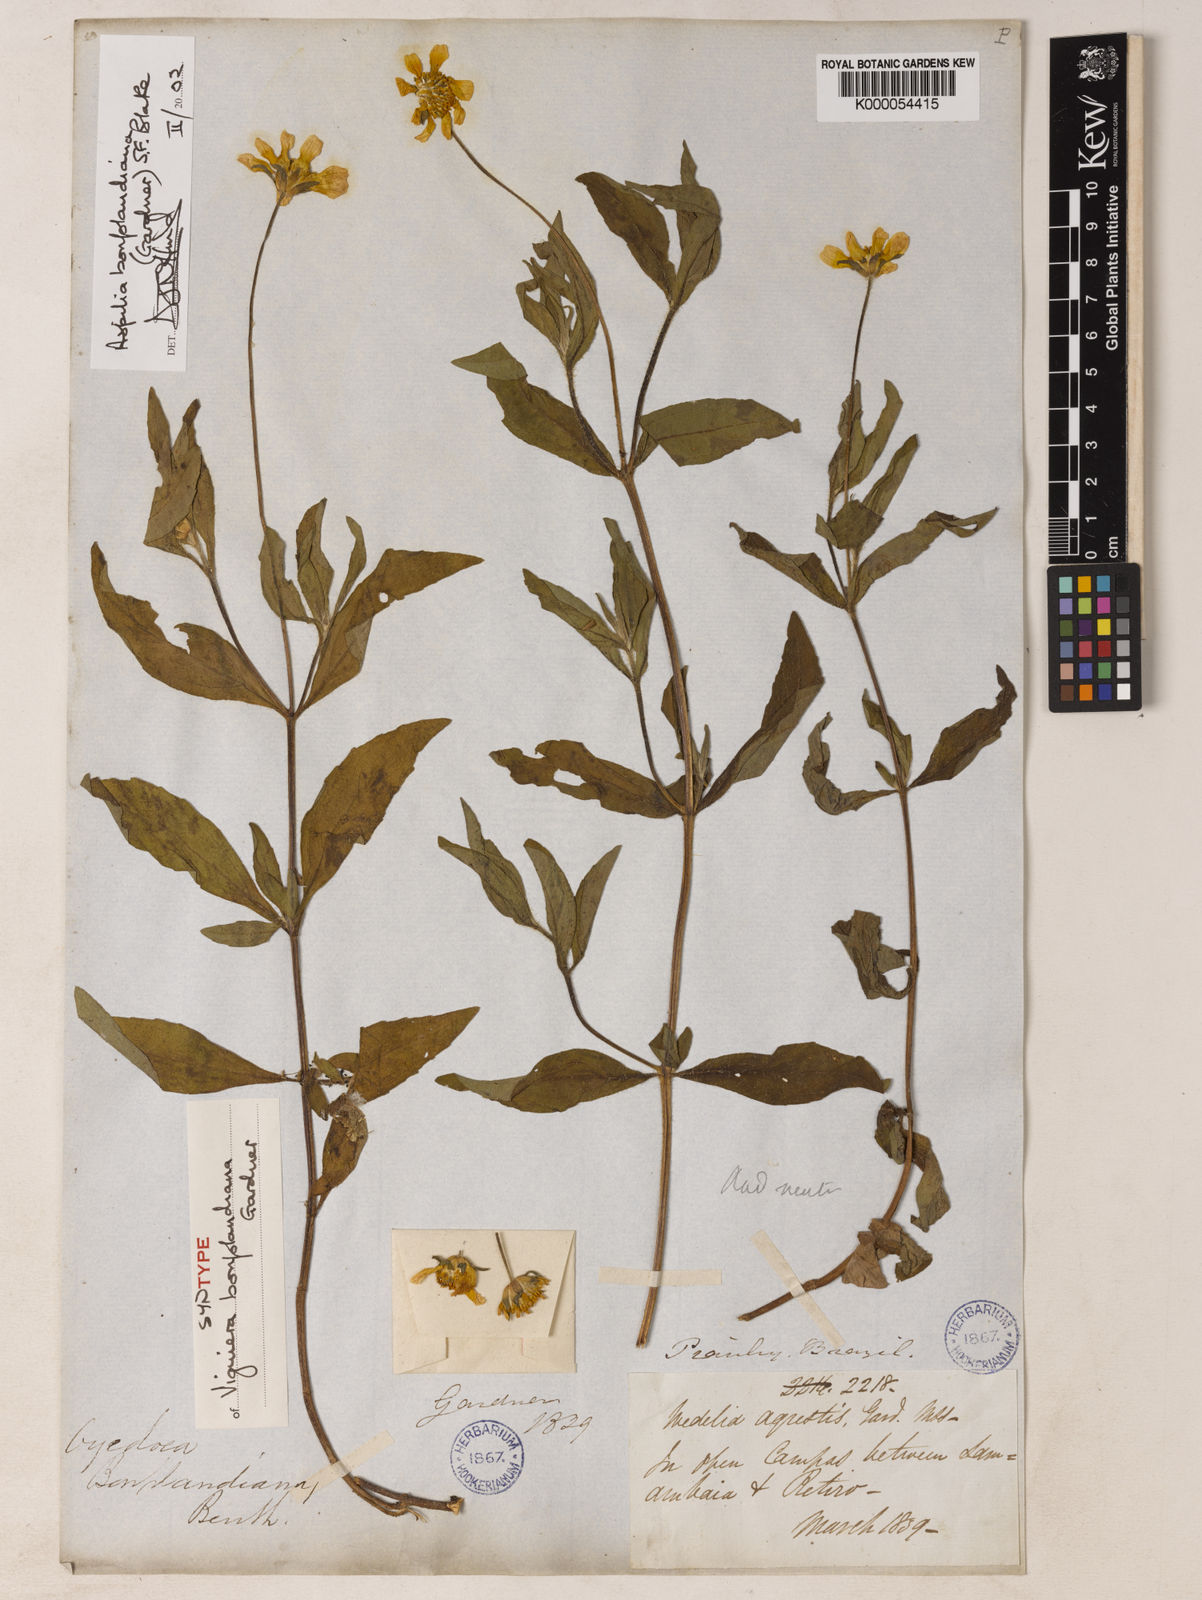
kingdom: Plantae
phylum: Tracheophyta
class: Magnoliopsida
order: Asterales
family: Asteraceae
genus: Wedelia
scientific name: Wedelia bonplandiana
